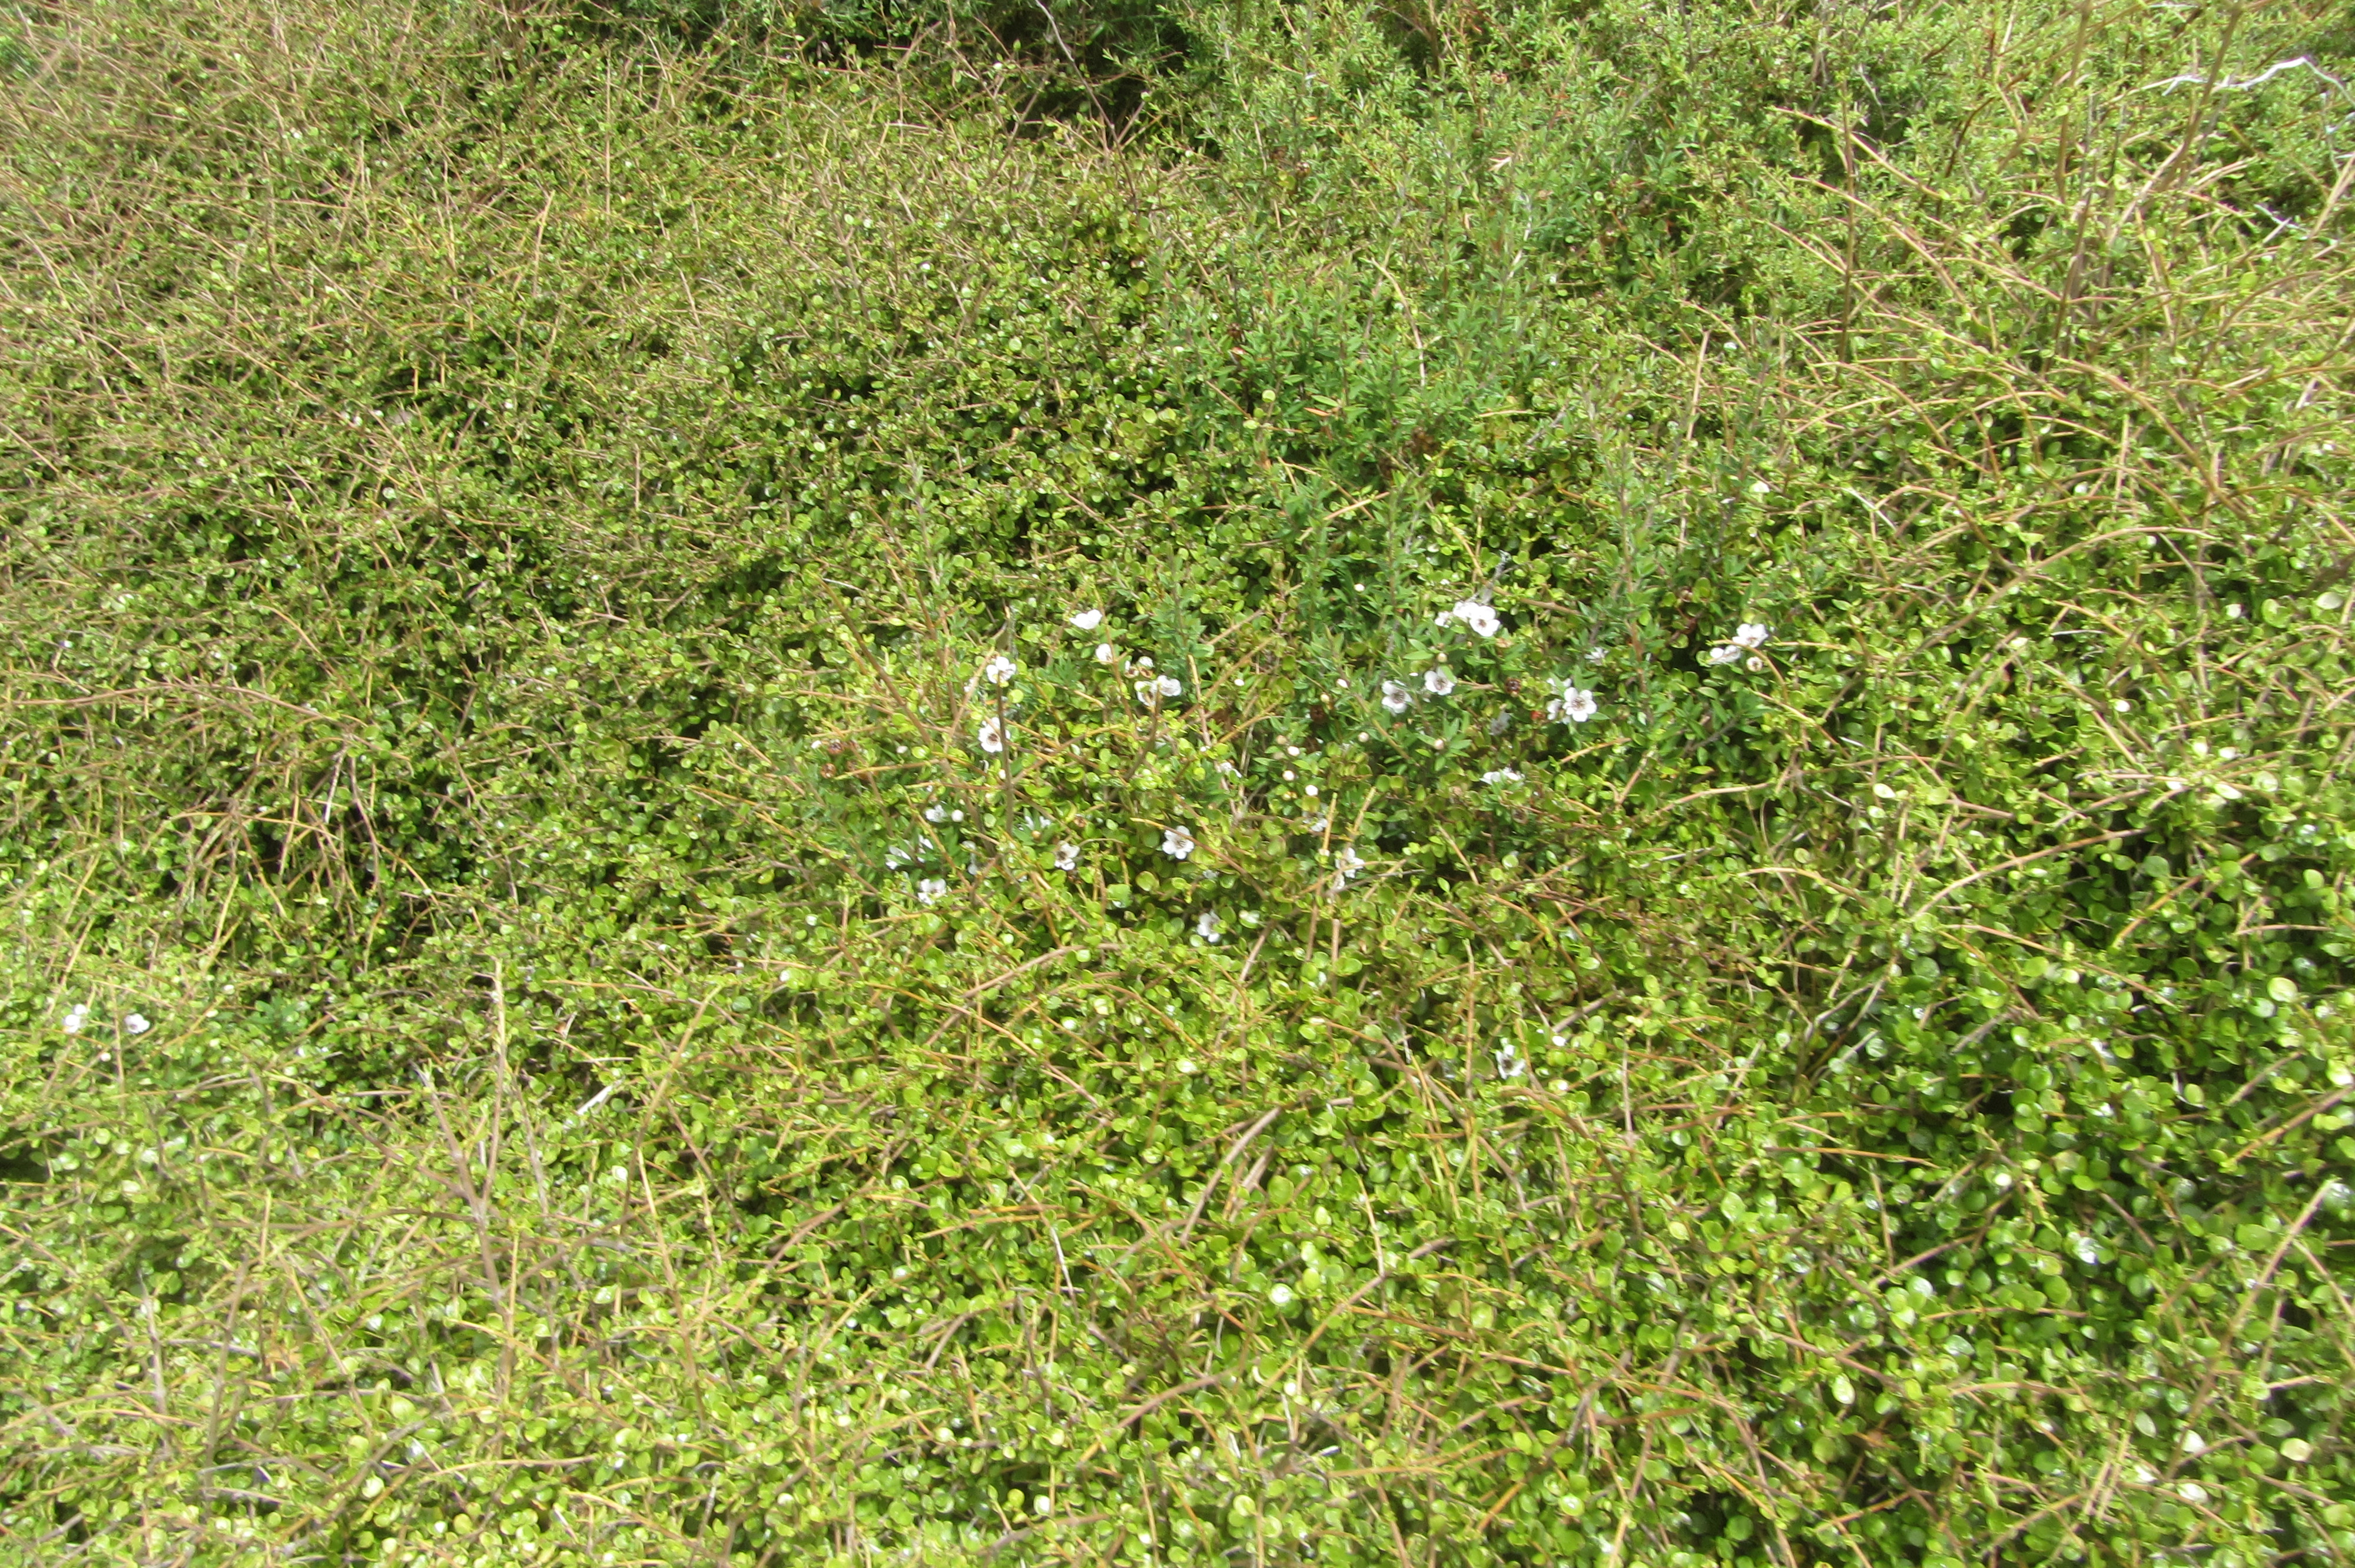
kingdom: Plantae
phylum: Tracheophyta
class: Magnoliopsida
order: Myrtales
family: Myrtaceae
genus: Leptospermum
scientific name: Leptospermum scoparium
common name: Broom tea-tree
